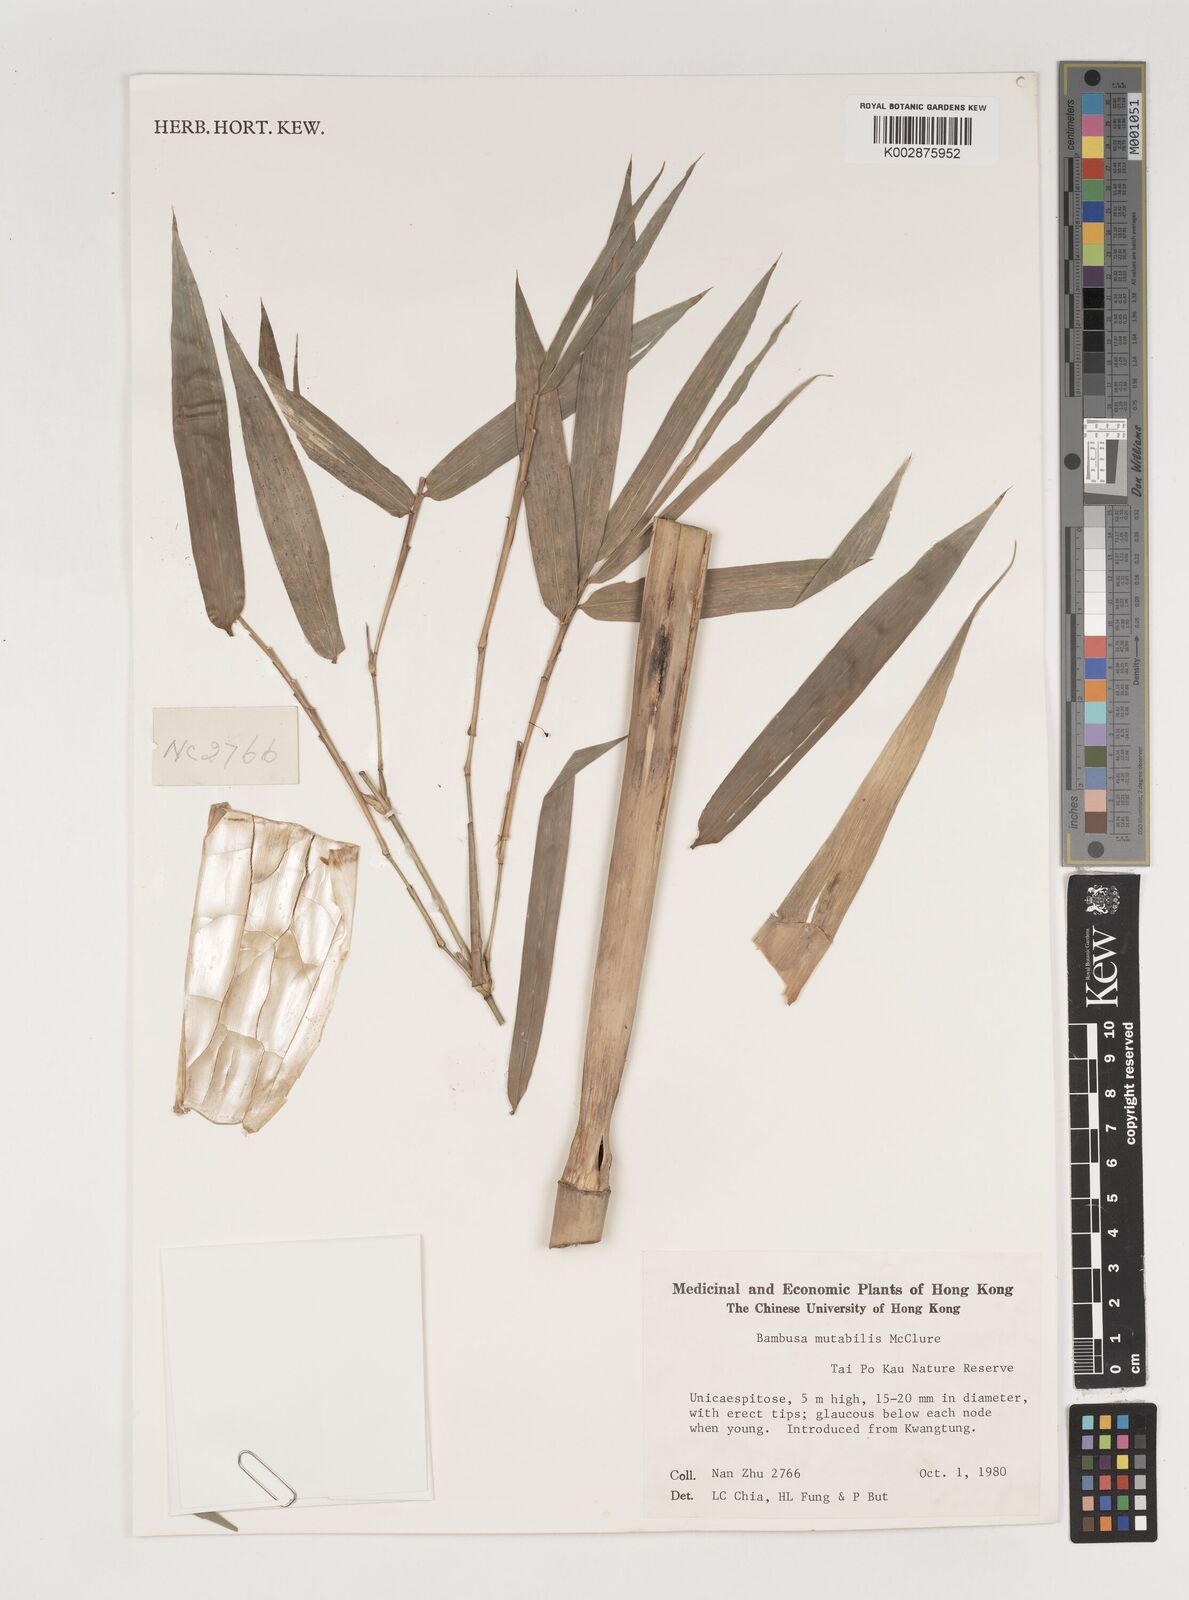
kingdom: Plantae
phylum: Tracheophyta
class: Liliopsida
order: Poales
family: Poaceae
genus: Bambusa
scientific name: Bambusa mutabilis
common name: Lesser yellow bamboo
